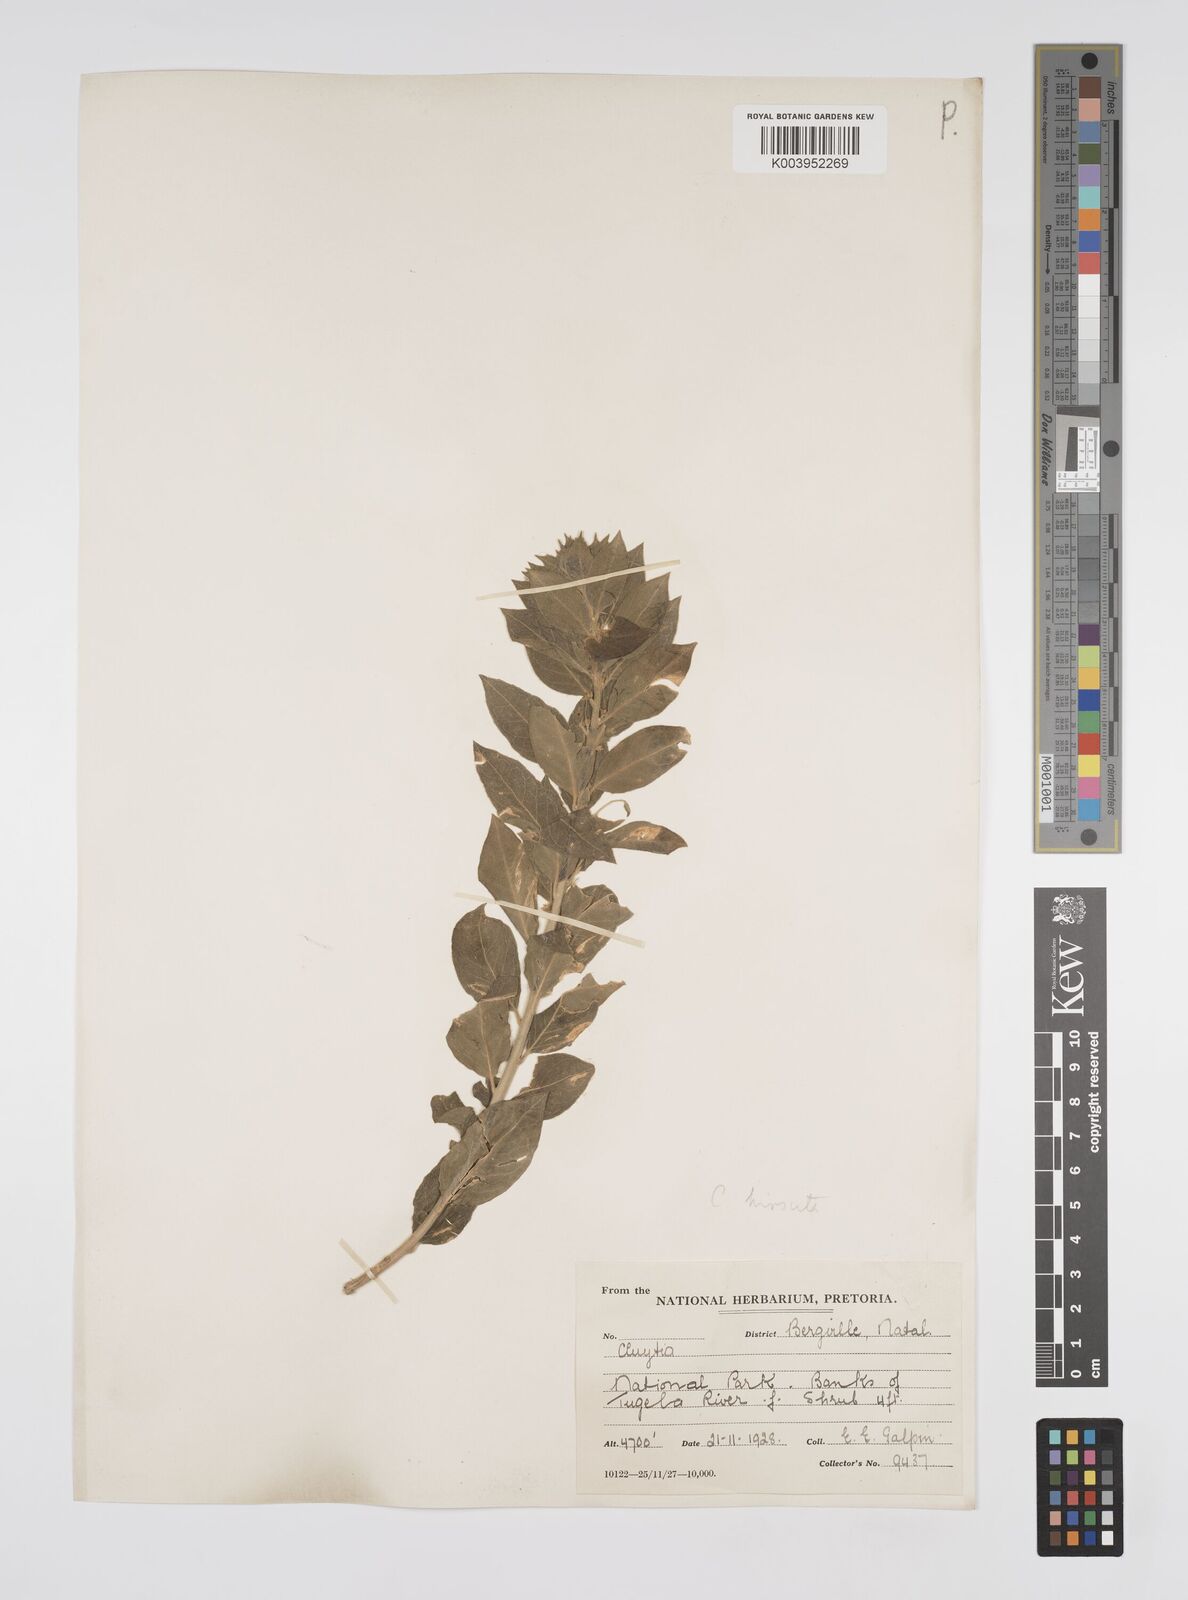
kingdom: Plantae
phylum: Tracheophyta
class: Magnoliopsida
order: Malpighiales
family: Peraceae
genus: Clutia
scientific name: Clutia affinis
